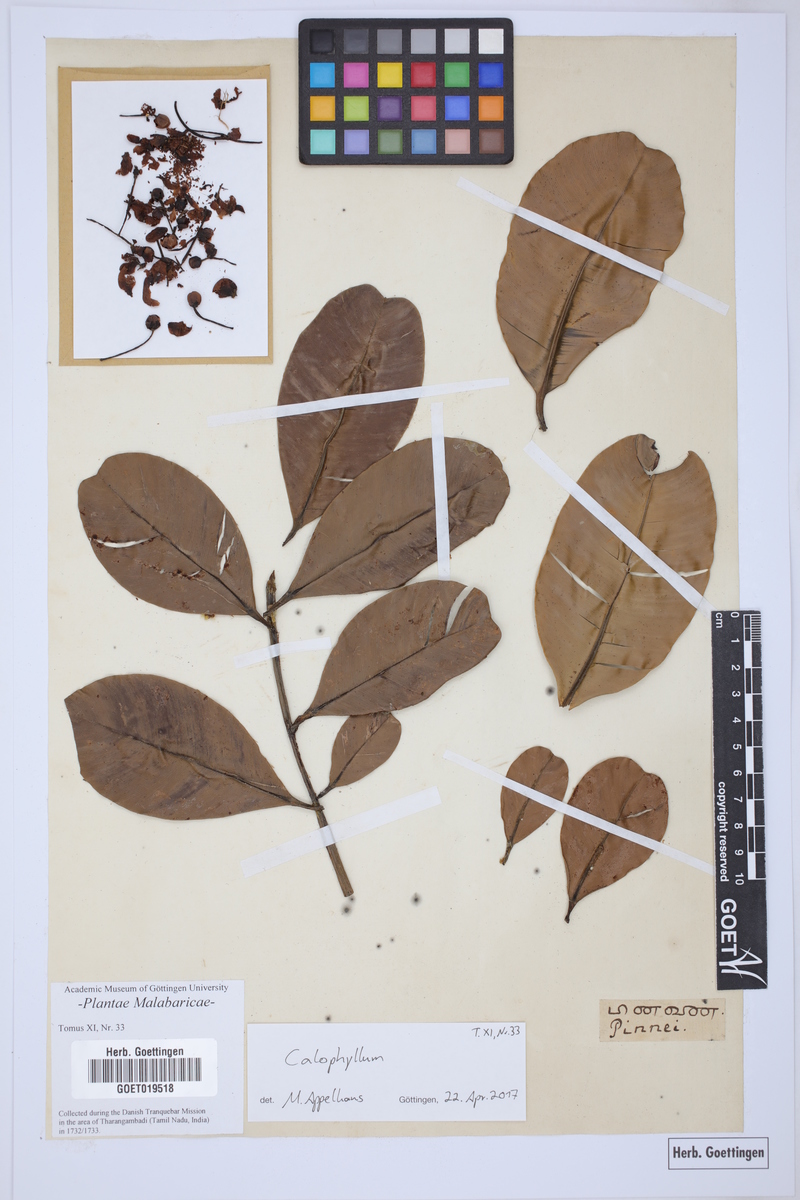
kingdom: Plantae
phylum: Tracheophyta
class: Magnoliopsida
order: Malpighiales
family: Calophyllaceae
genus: Calophyllum
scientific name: Calophyllum
